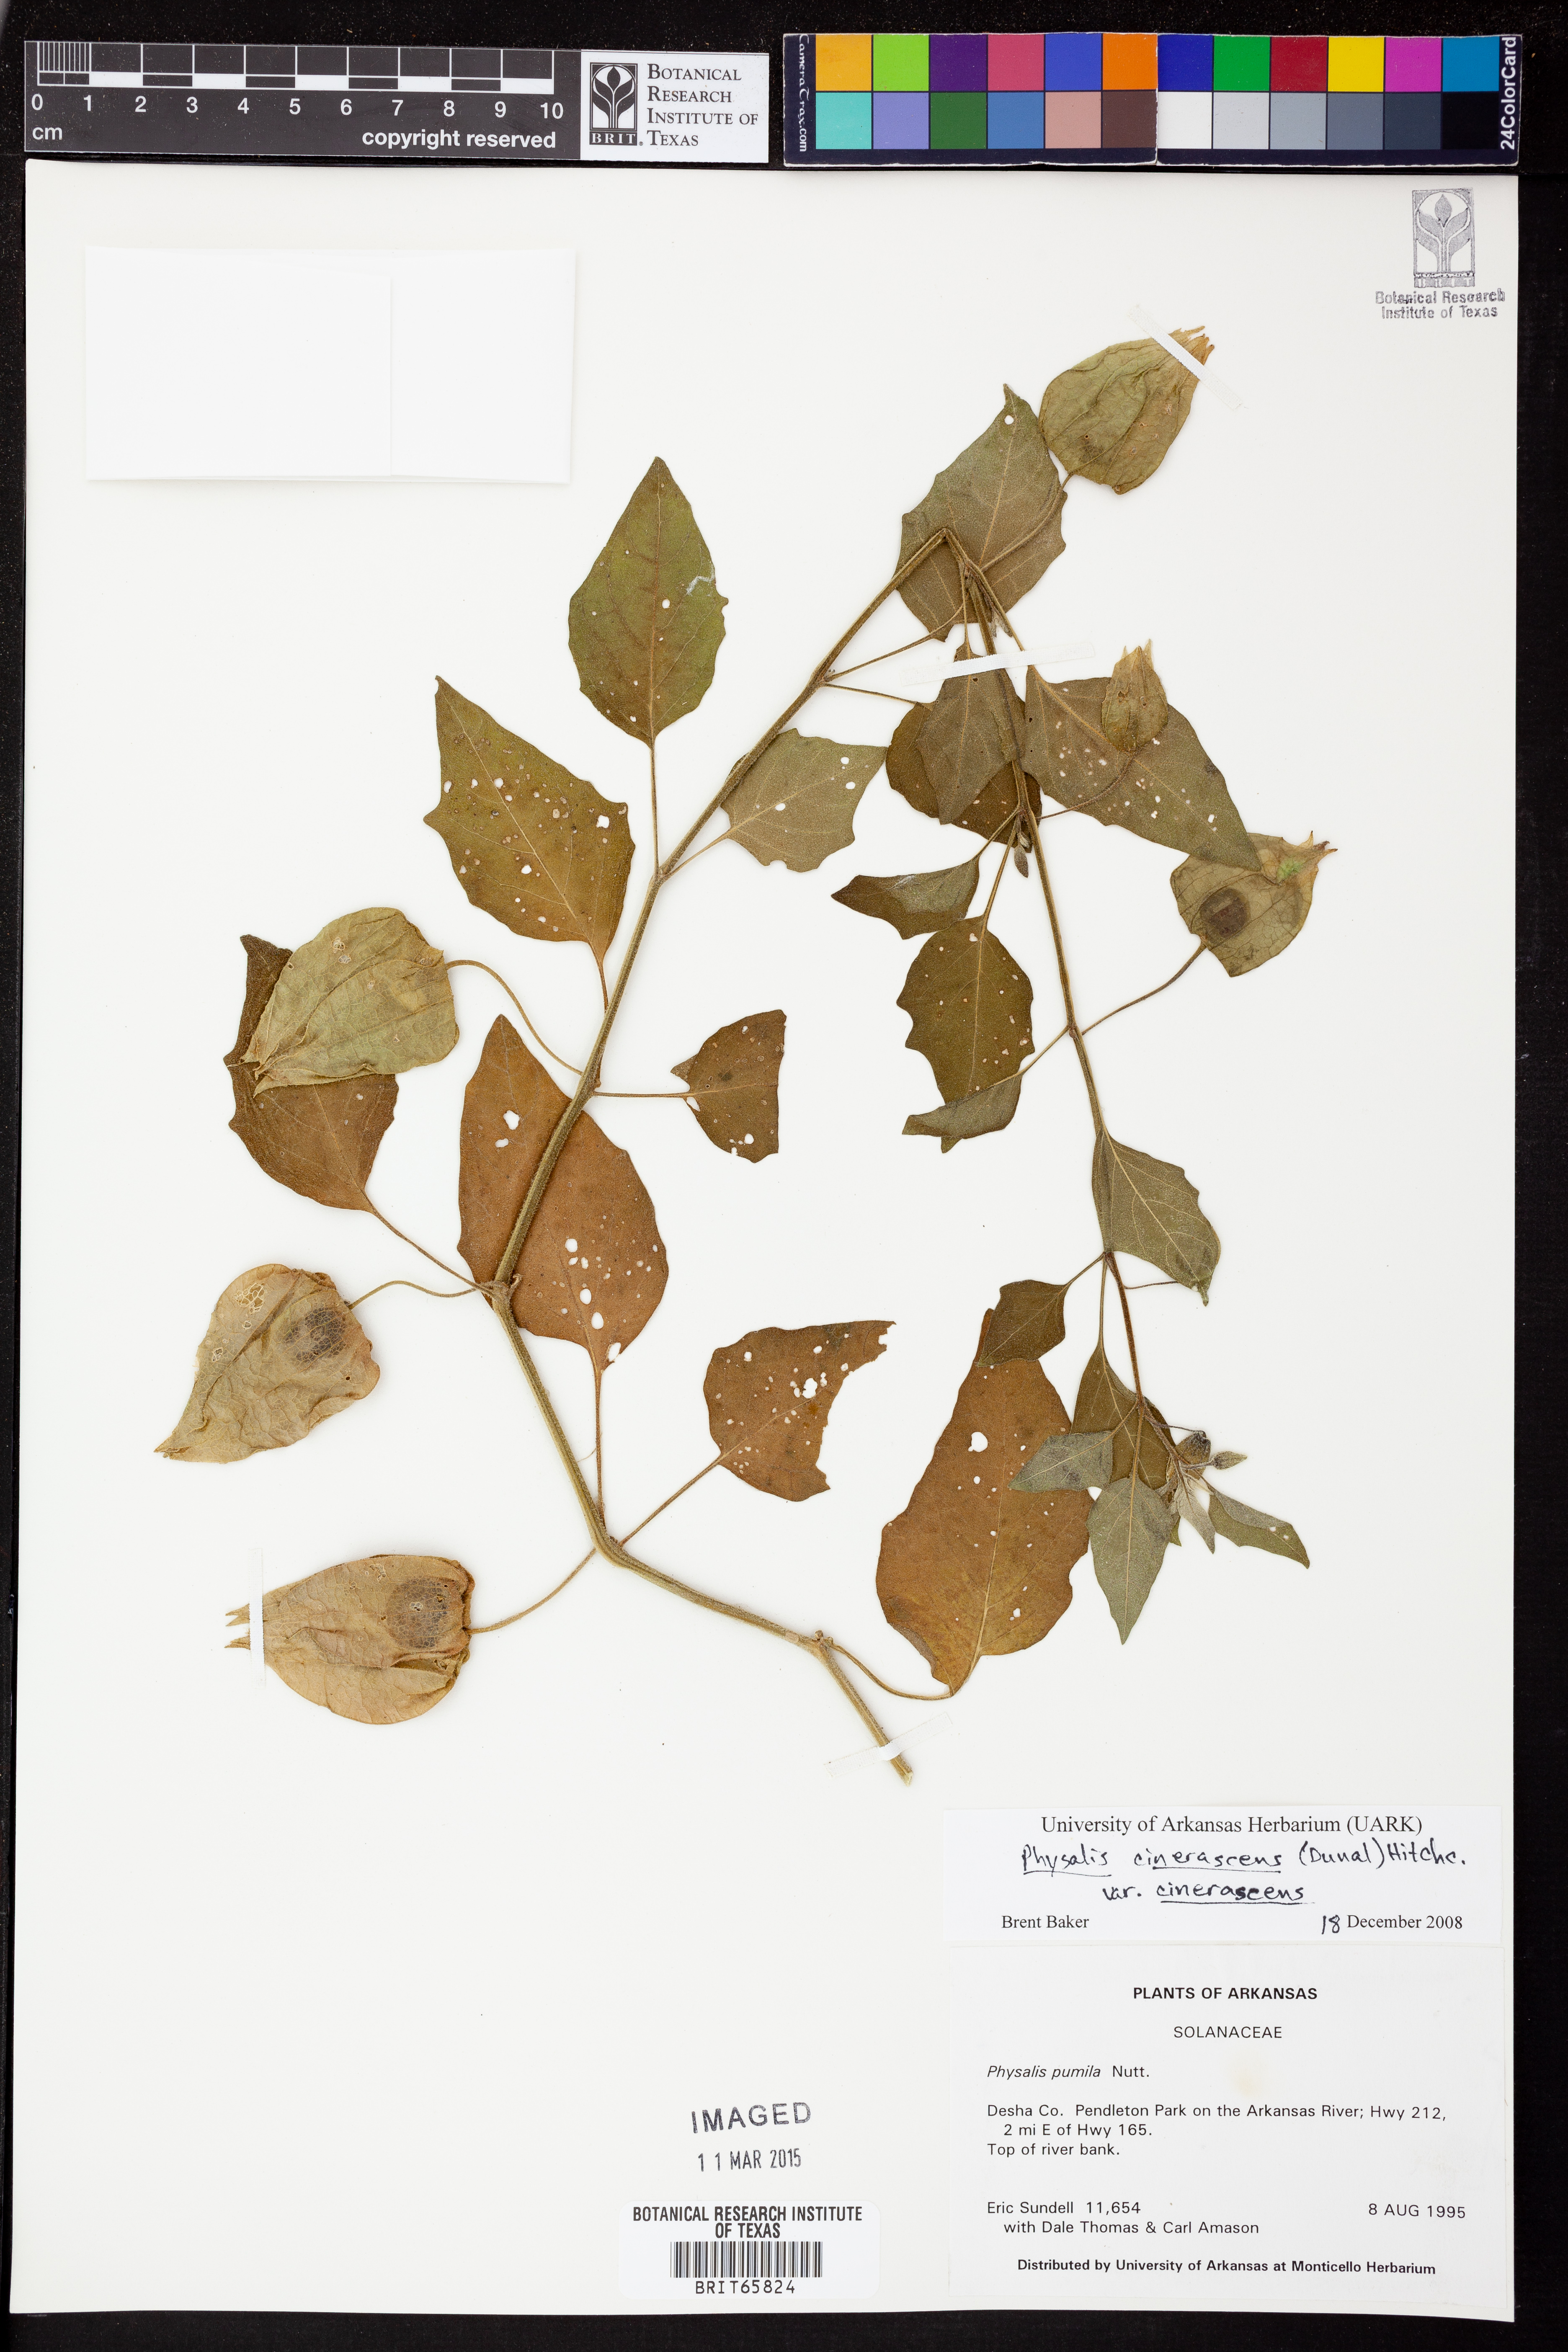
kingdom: Plantae
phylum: Tracheophyta
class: Magnoliopsida
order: Solanales
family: Solanaceae
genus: Physalis
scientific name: Physalis cinerascens
